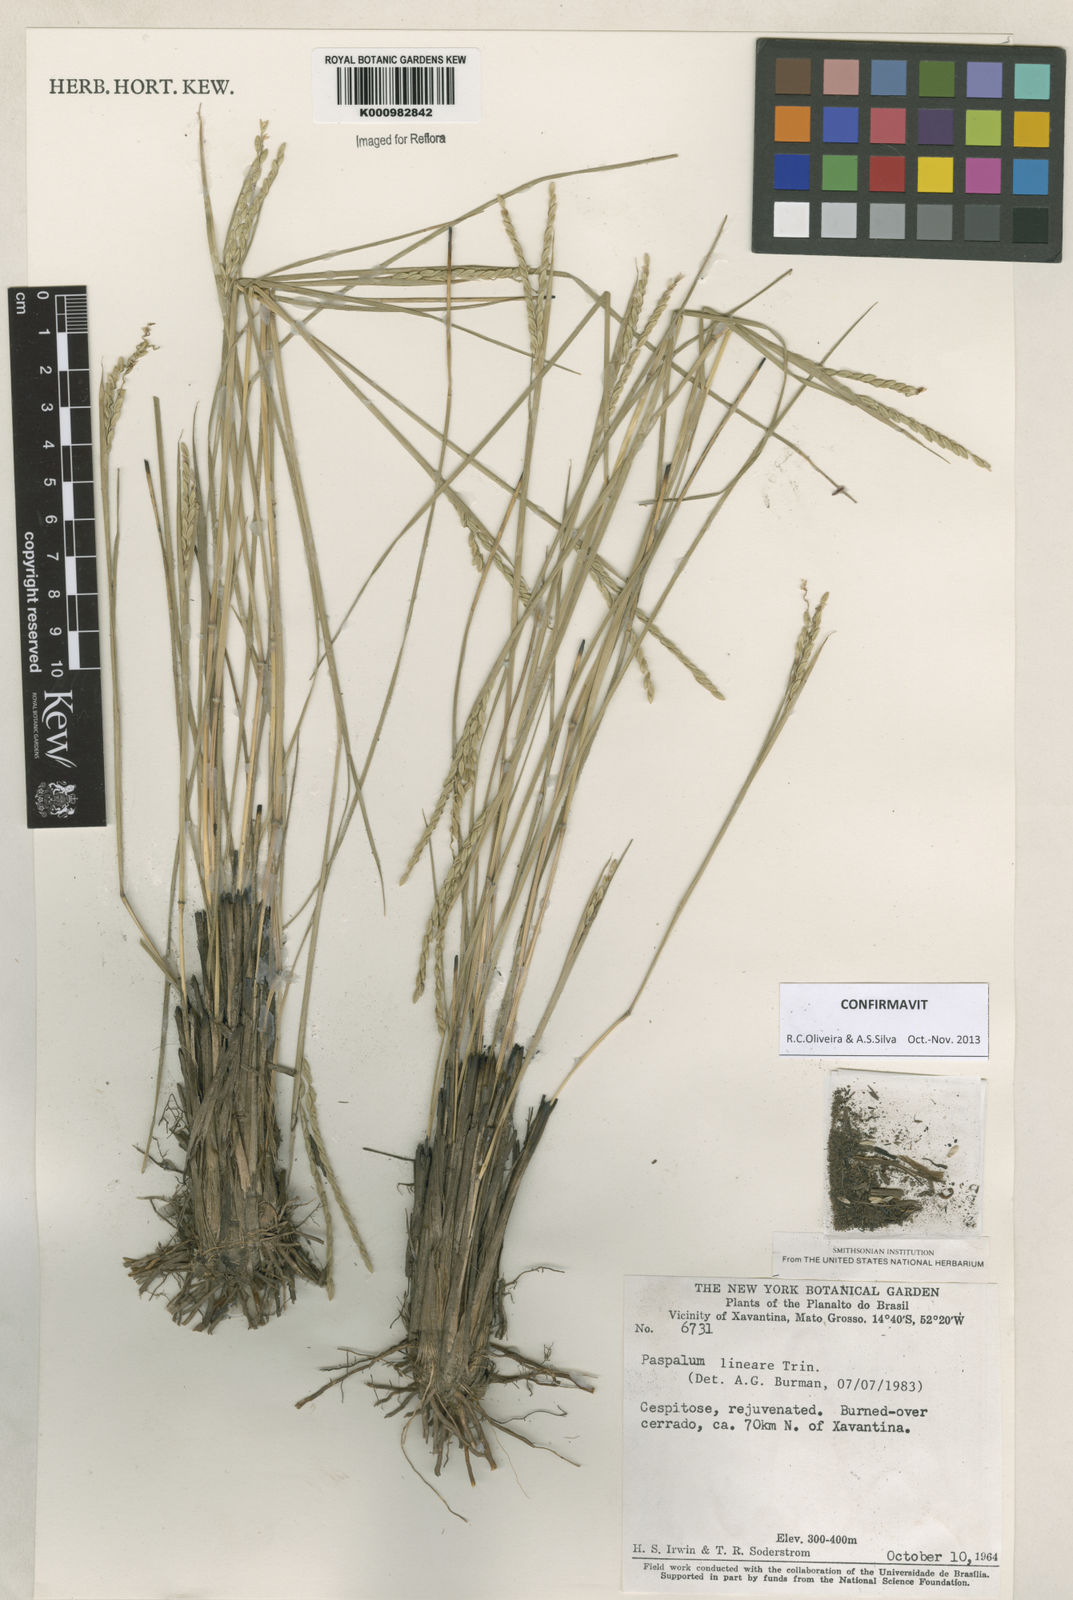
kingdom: Plantae
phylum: Tracheophyta
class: Liliopsida
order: Poales
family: Poaceae
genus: Paspalum
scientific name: Paspalum lineare
